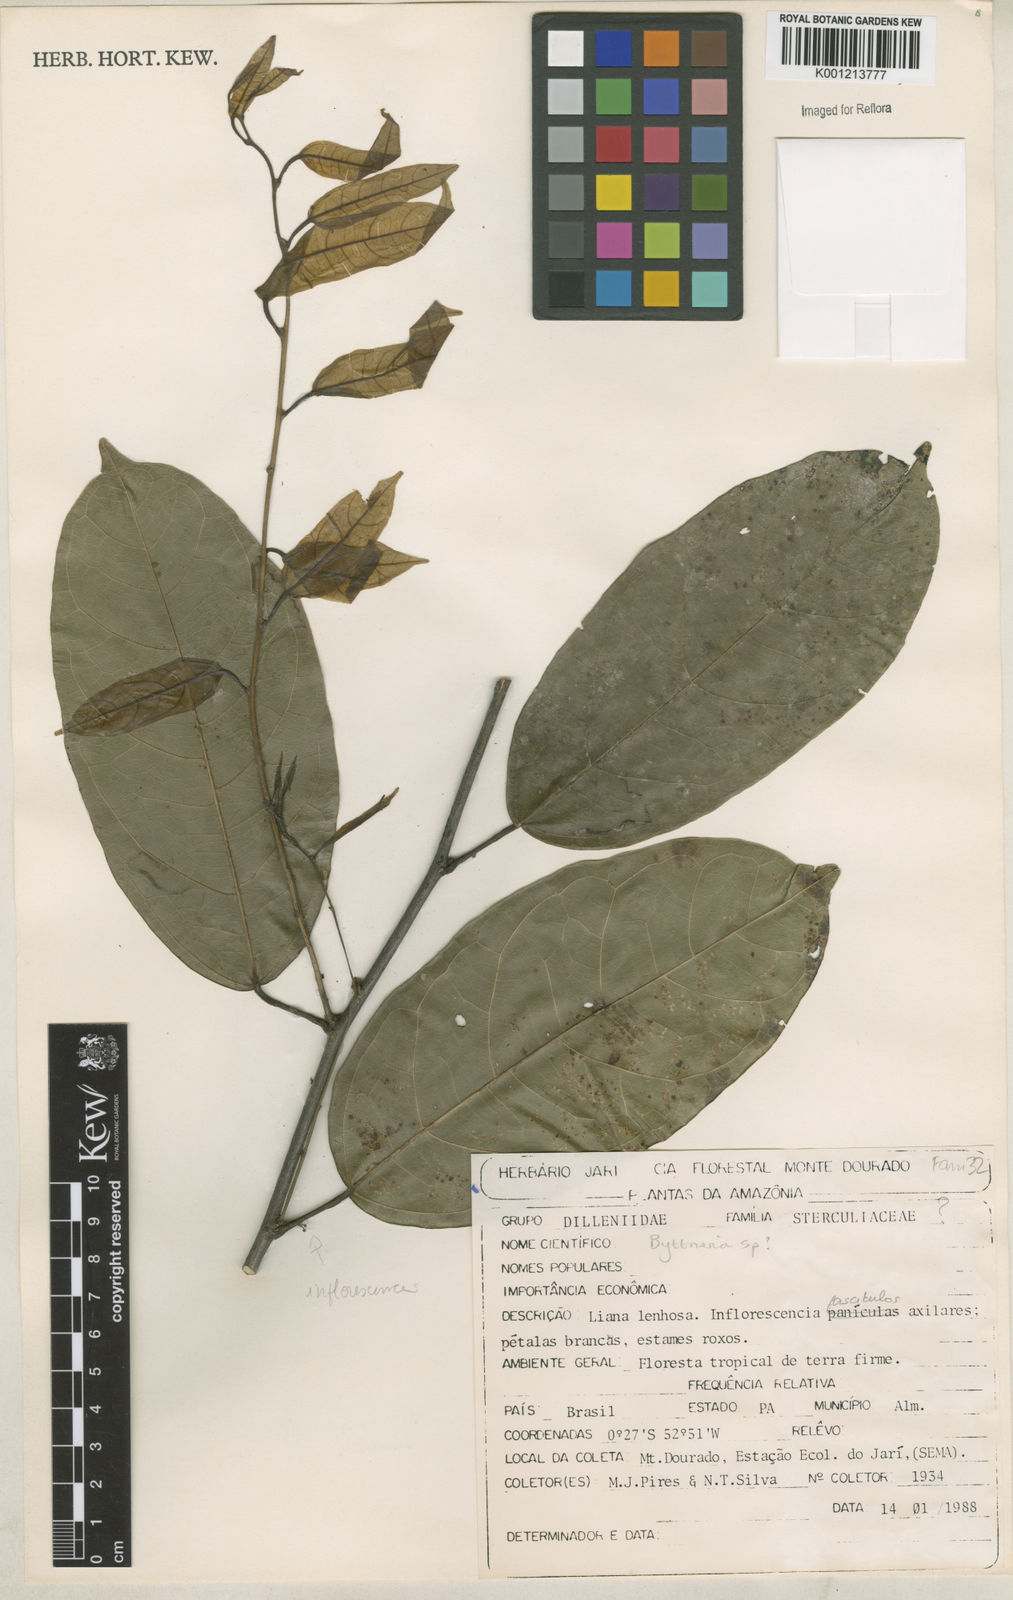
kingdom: Plantae
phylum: Tracheophyta
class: Magnoliopsida
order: Malvales
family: Malvaceae
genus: Byttneria
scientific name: Byttneria
